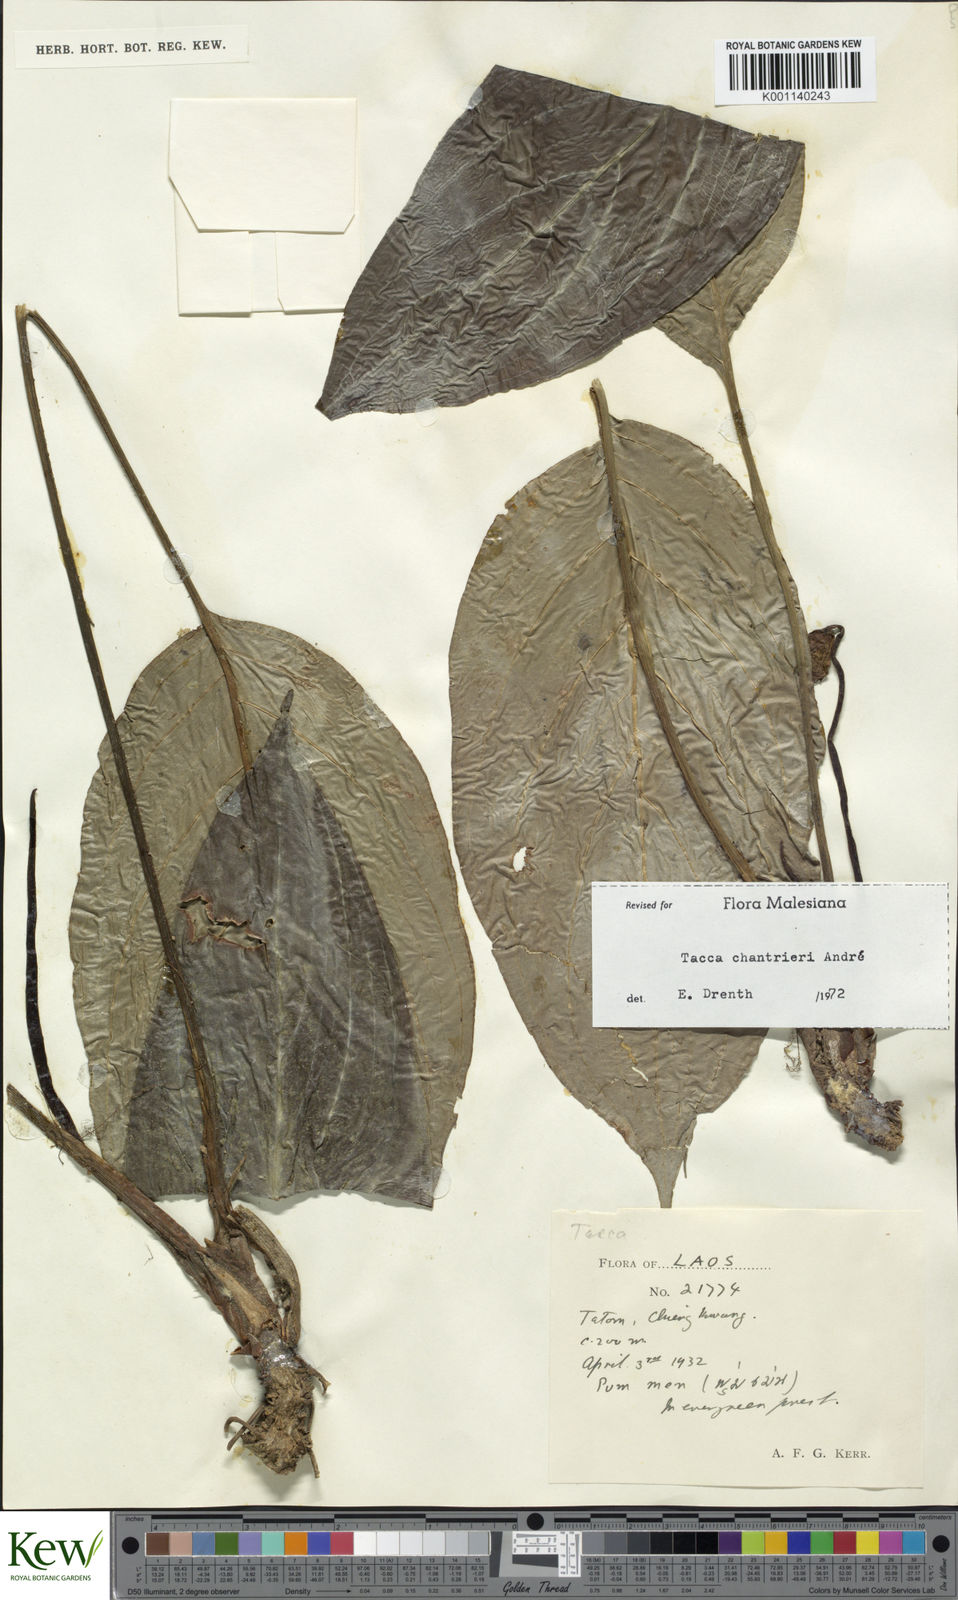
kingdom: Plantae
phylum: Tracheophyta
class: Liliopsida
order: Dioscoreales
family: Dioscoreaceae
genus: Tacca
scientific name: Tacca
